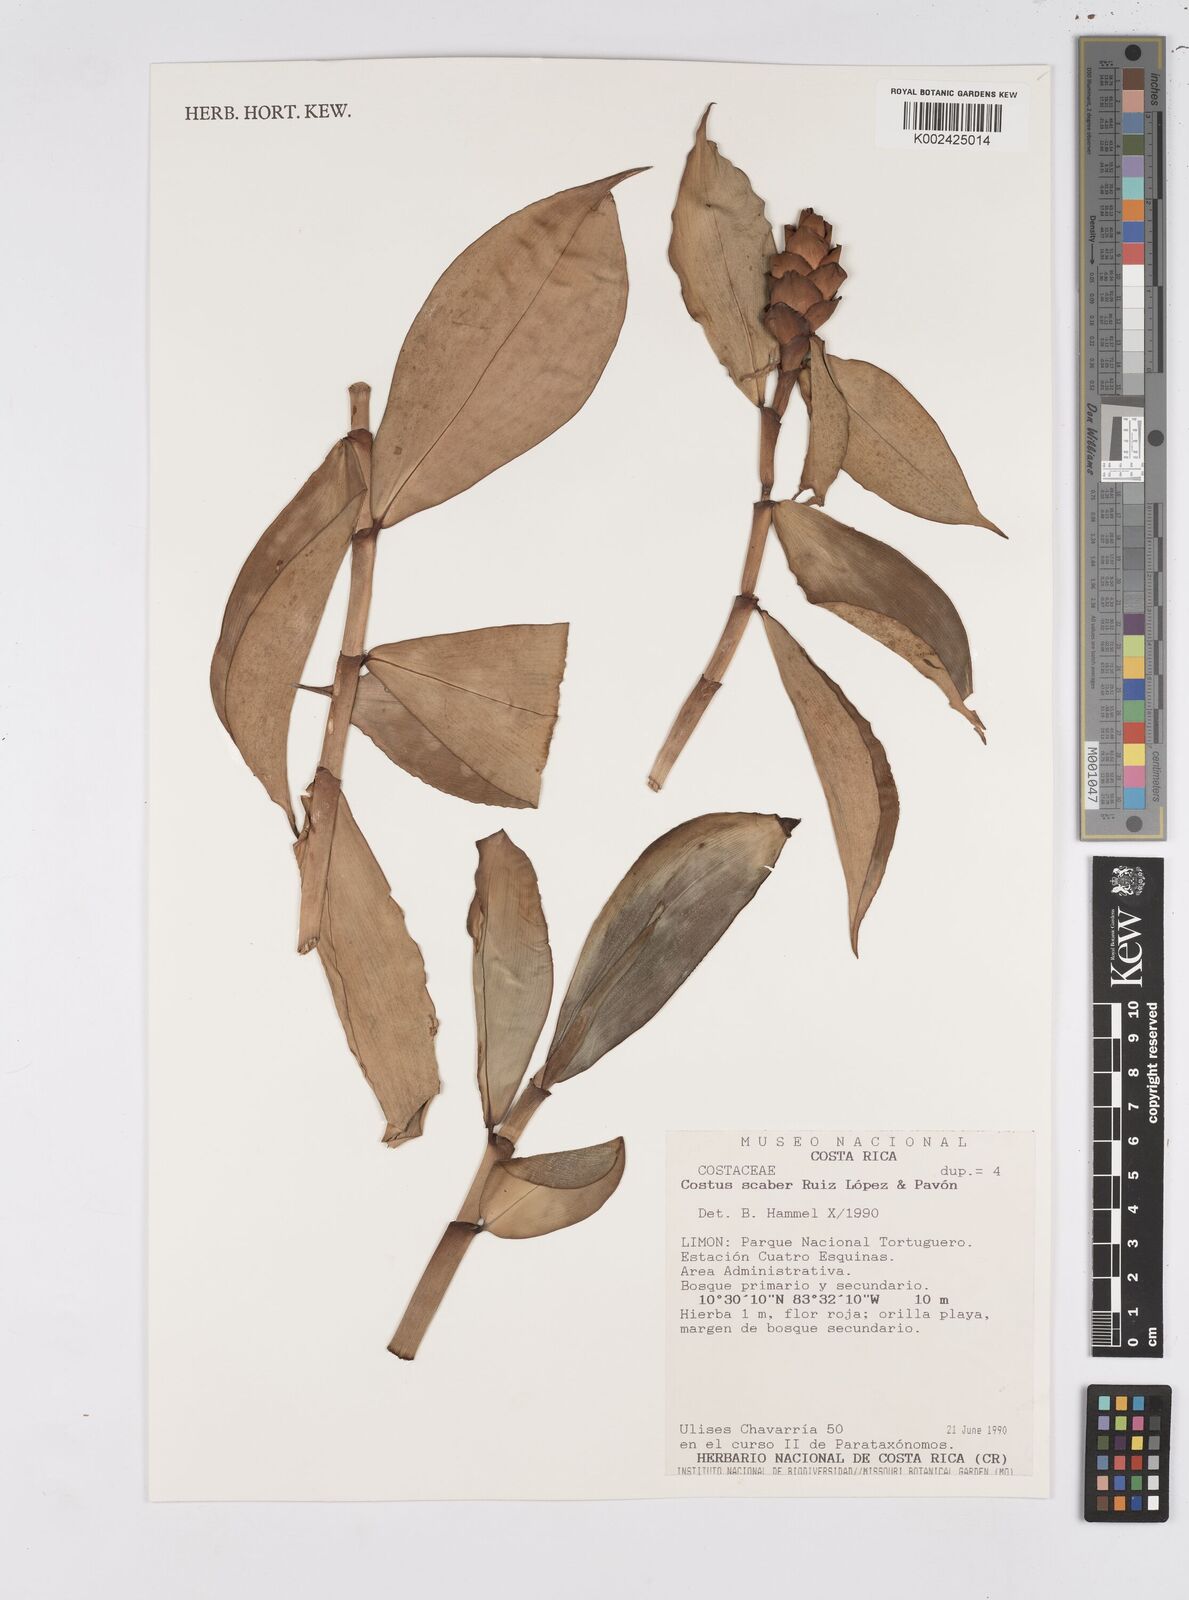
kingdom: Plantae
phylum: Tracheophyta
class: Liliopsida
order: Zingiberales
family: Costaceae
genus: Costus
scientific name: Costus scaber
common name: Spiral head ginger
